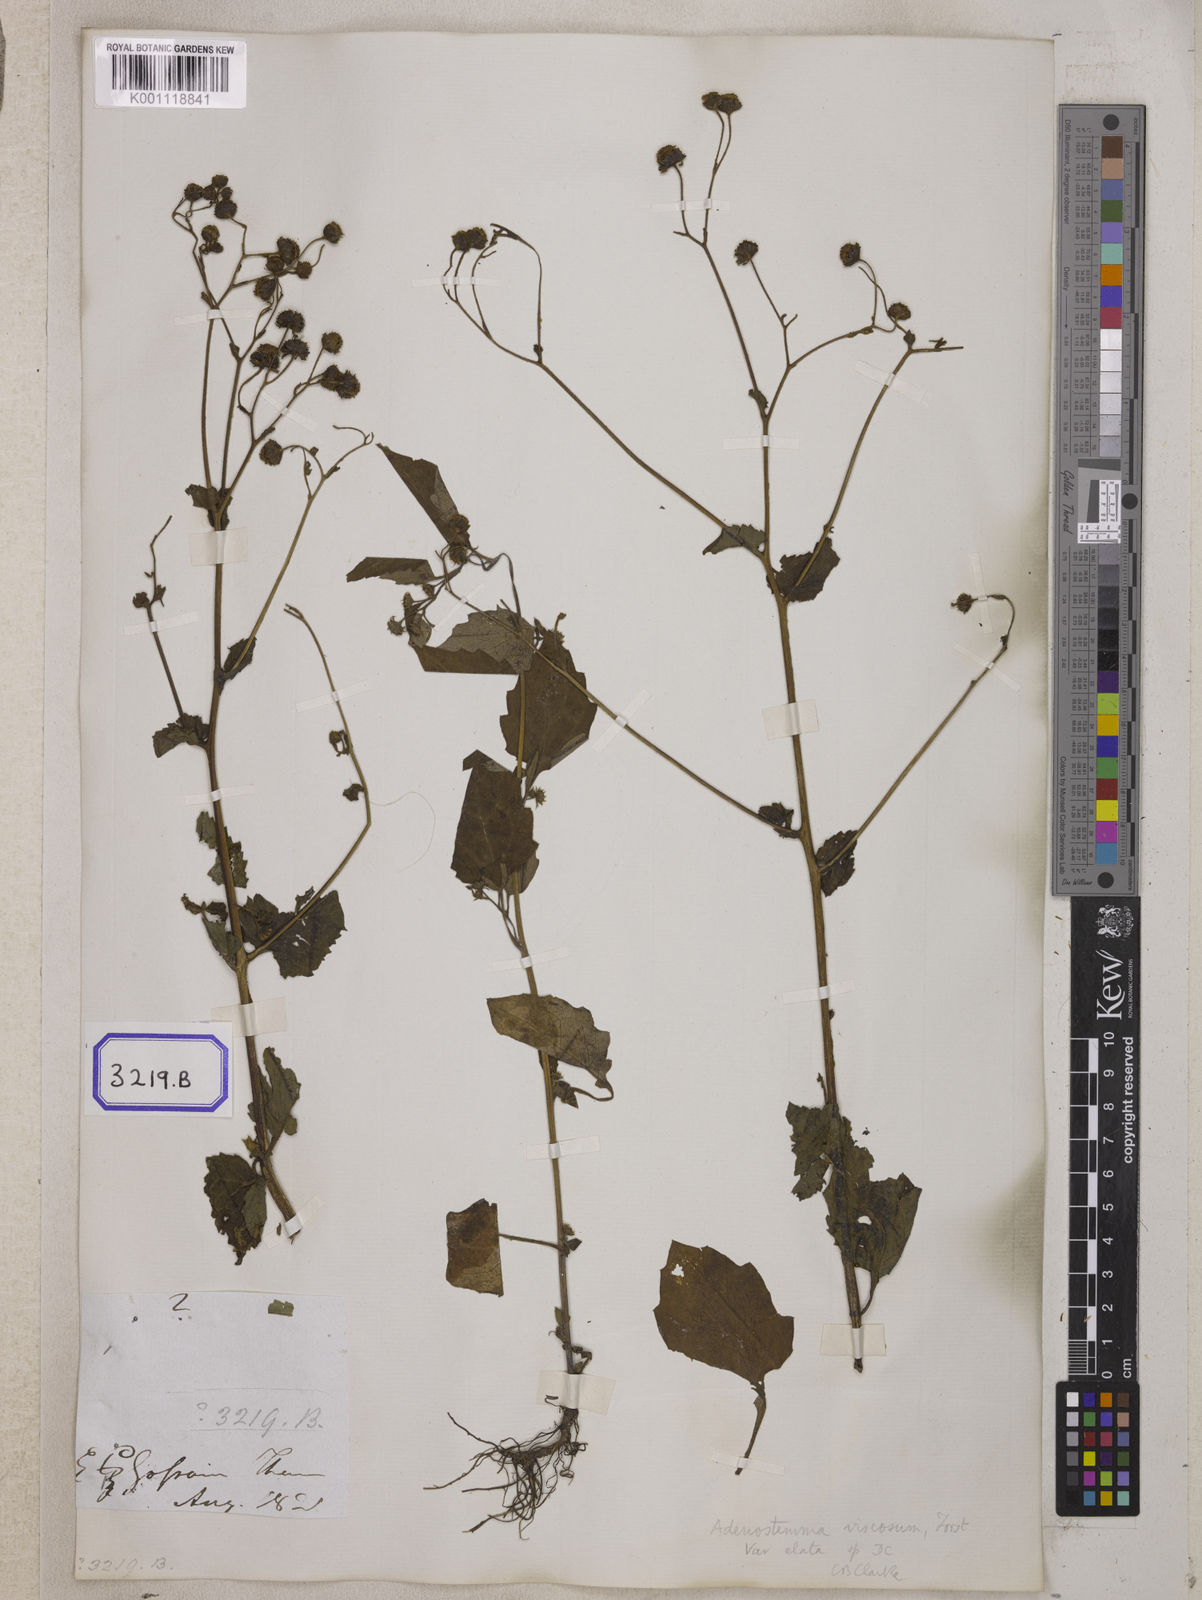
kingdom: Plantae
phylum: Tracheophyta
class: Magnoliopsida
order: Asterales
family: Asteraceae
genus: Adenostemma
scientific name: Adenostemma viscosum
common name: Dungweed
